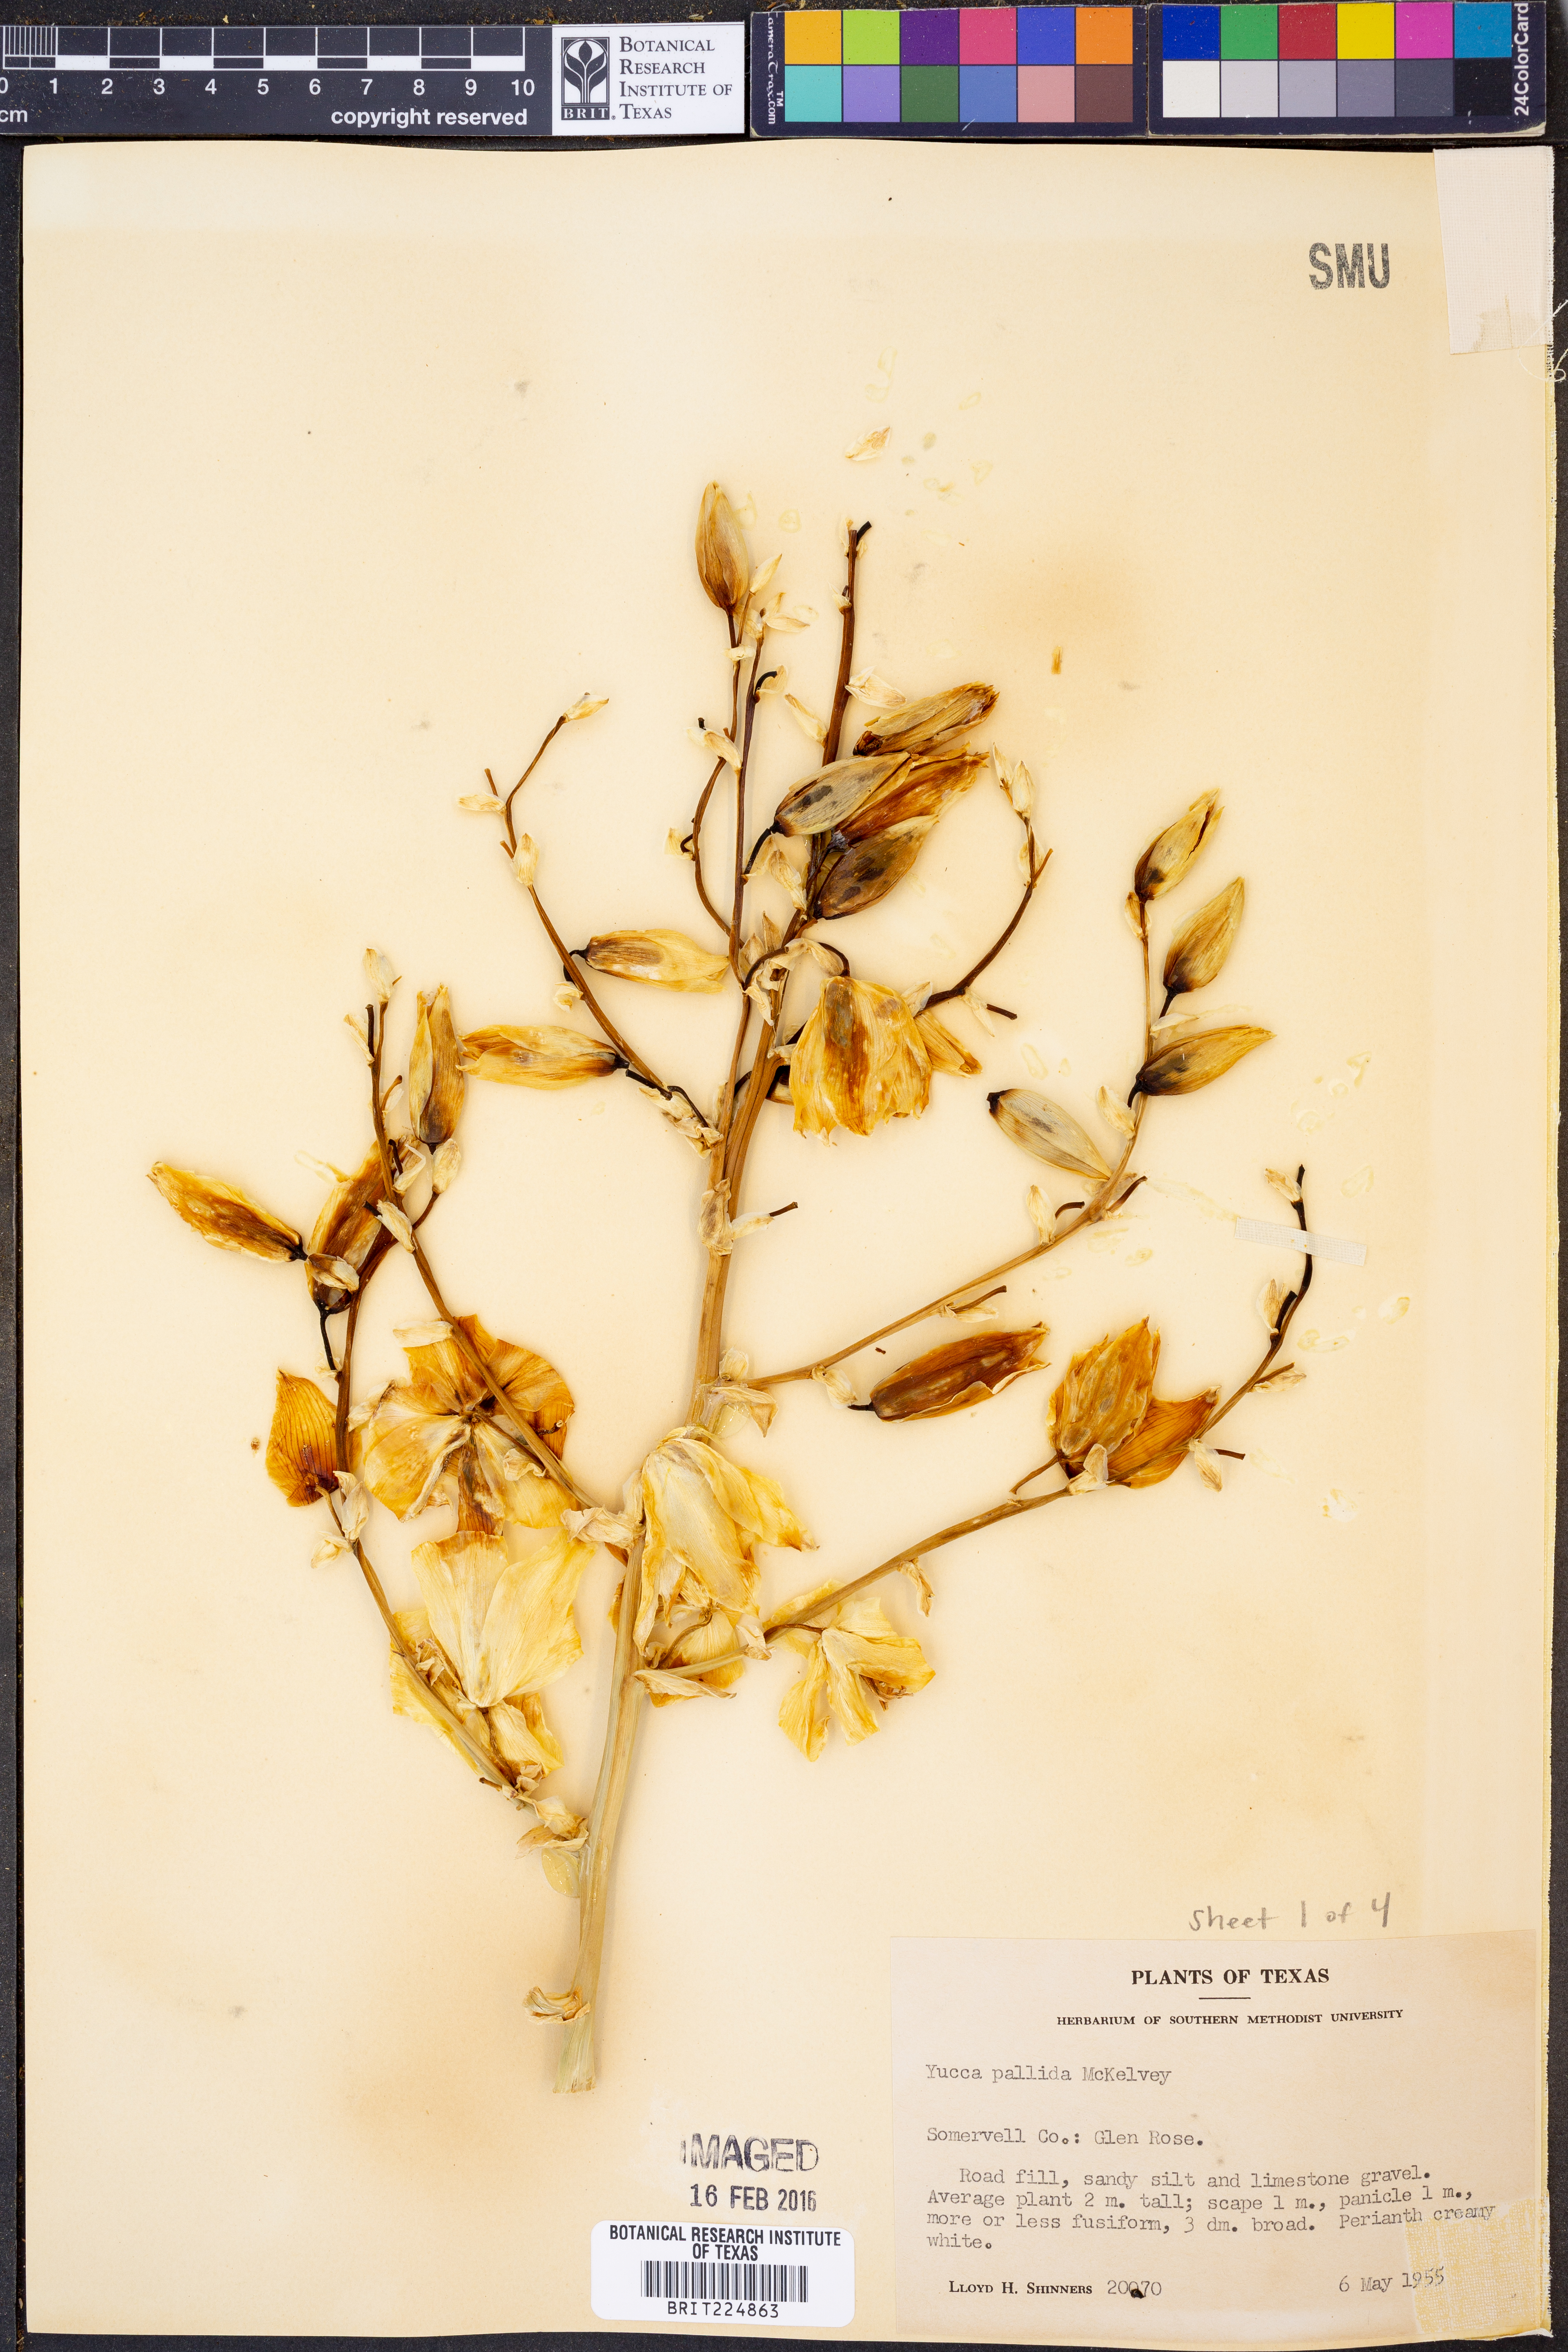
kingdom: Plantae
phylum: Tracheophyta
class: Liliopsida
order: Asparagales
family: Asparagaceae
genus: Yucca
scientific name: Yucca pallida
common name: Pale leaf yucca
